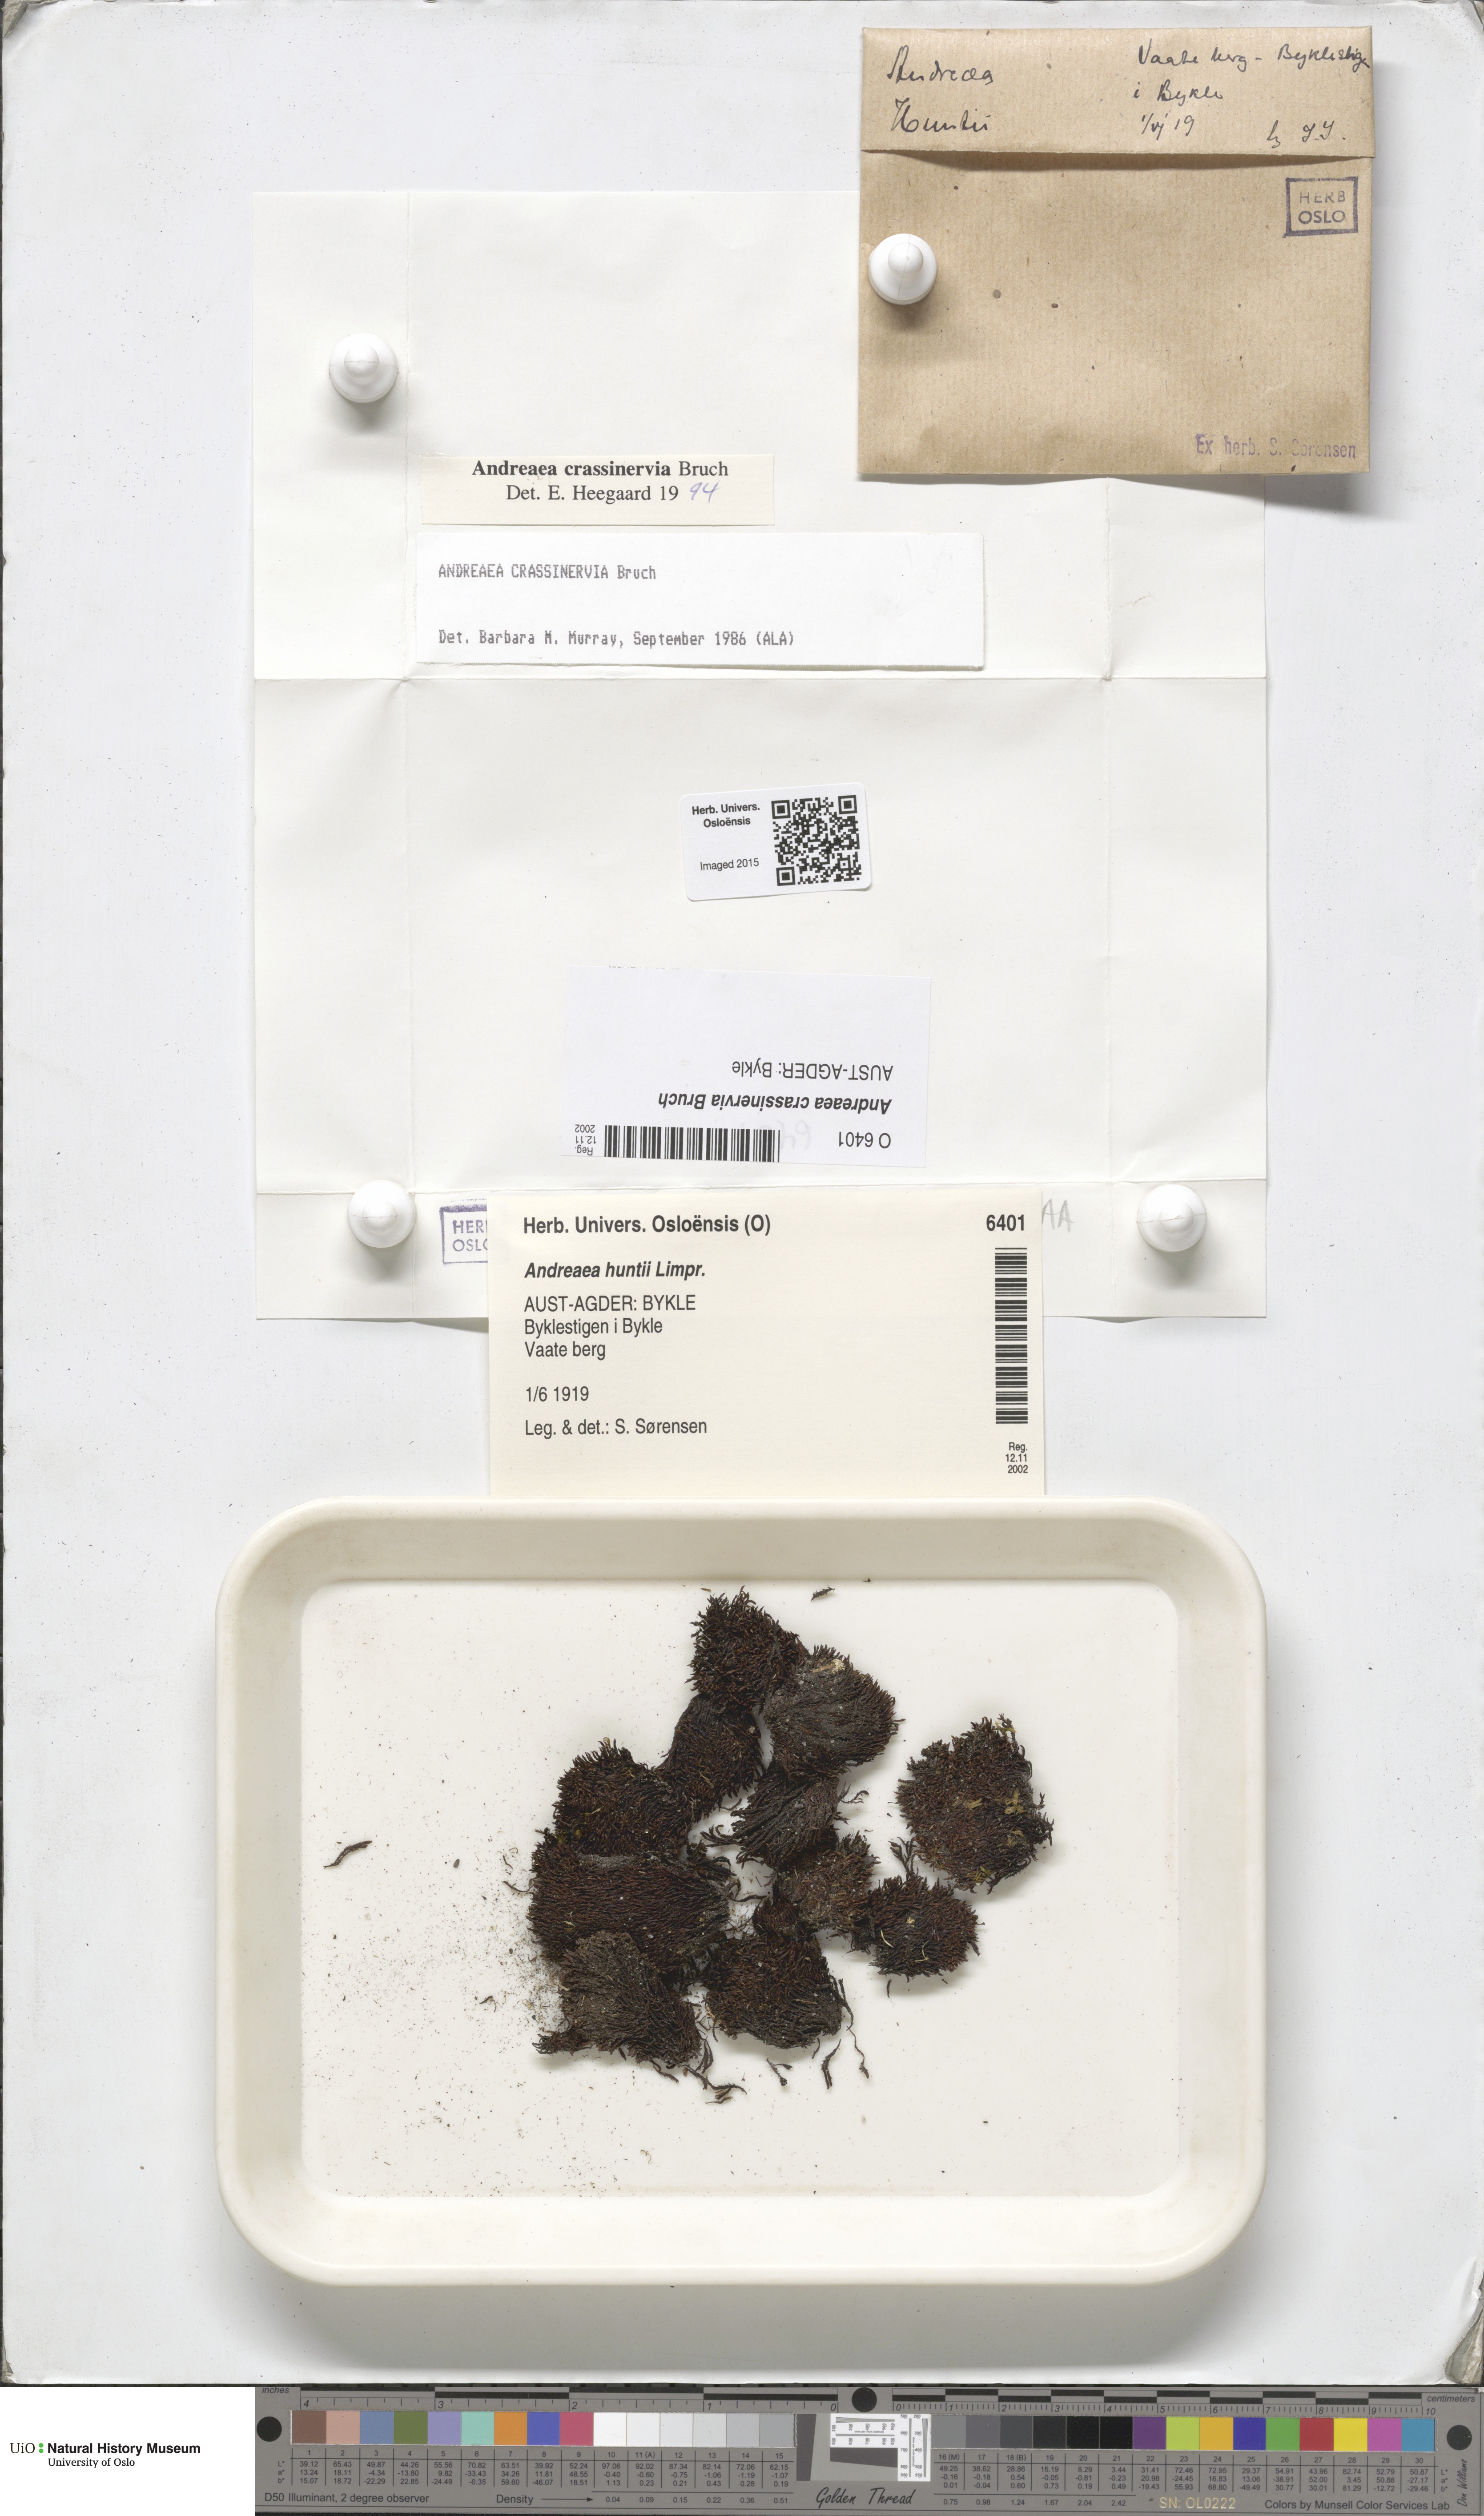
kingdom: Plantae
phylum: Bryophyta
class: Andreaeopsida
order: Andreaeales
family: Andreaeaceae
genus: Andreaea
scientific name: Andreaea crassinervia
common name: Thick-nerved rock moss
